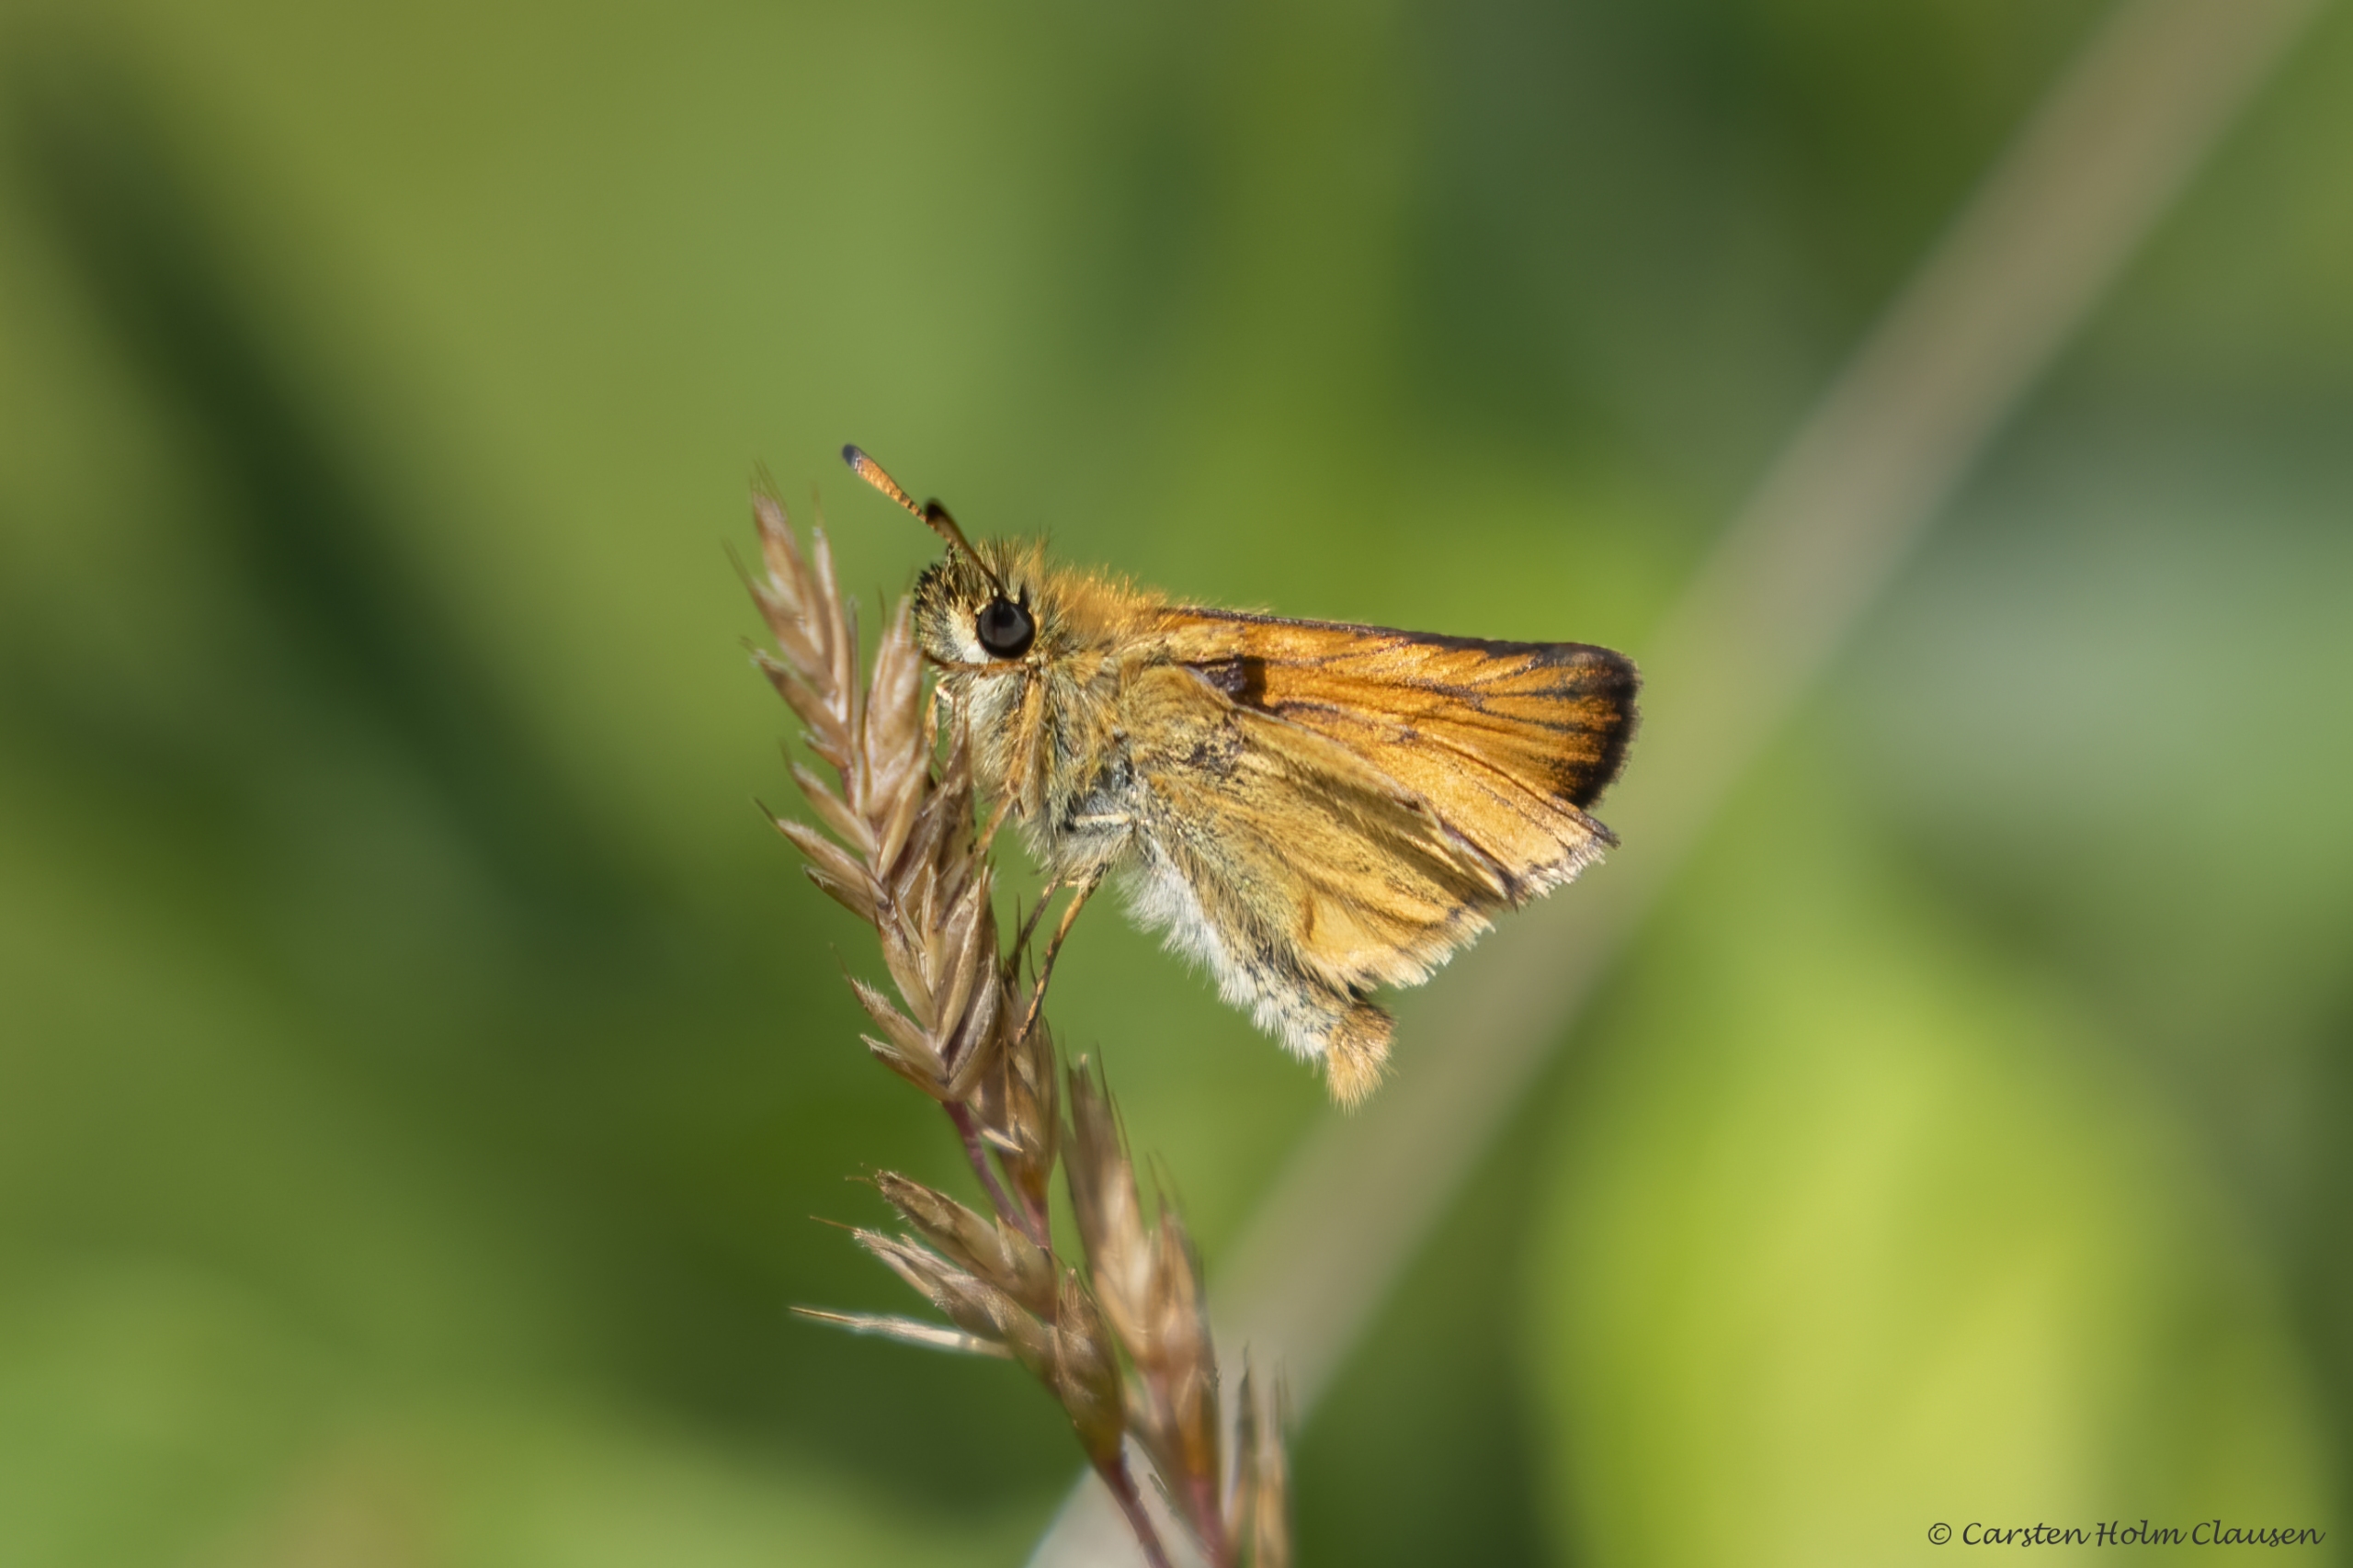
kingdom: Animalia
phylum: Arthropoda
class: Insecta
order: Lepidoptera
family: Hesperiidae
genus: Thymelicus
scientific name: Thymelicus lineola
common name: Stregbredpande
